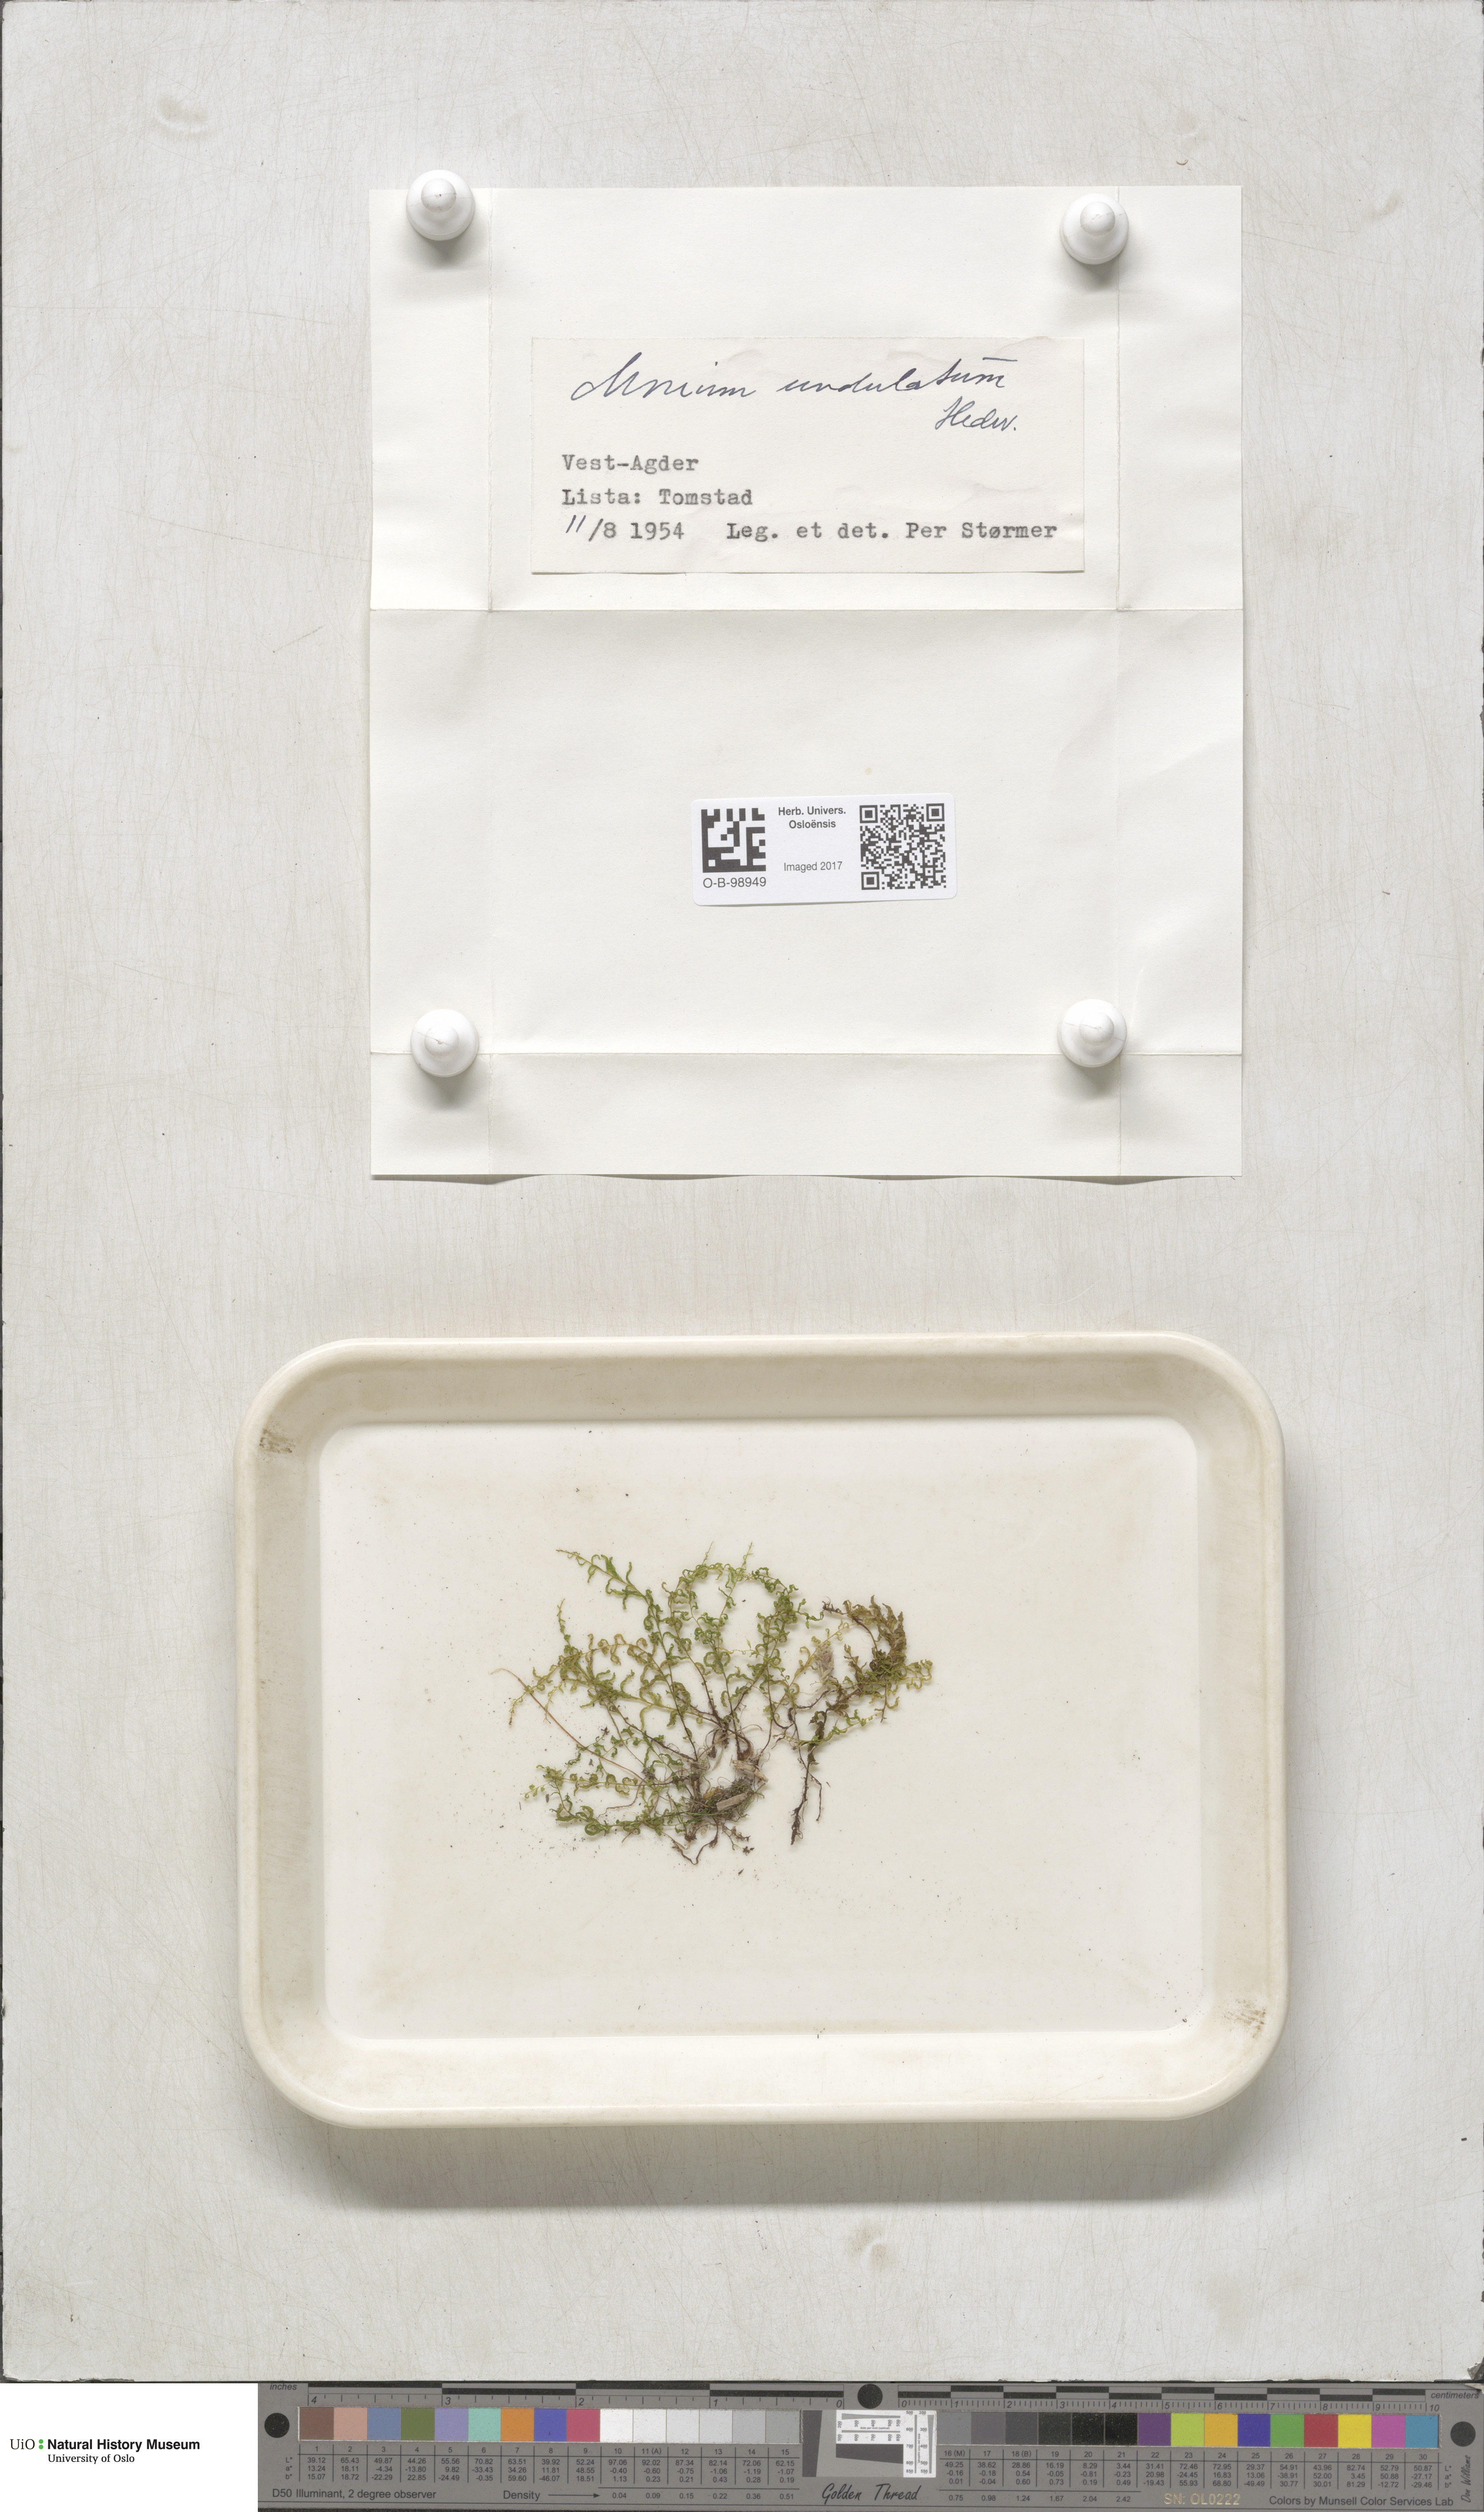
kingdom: Plantae
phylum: Bryophyta
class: Bryopsida
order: Bryales
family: Mniaceae
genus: Plagiomnium
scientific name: Plagiomnium undulatum
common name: Hart's-tongue thyme-moss
